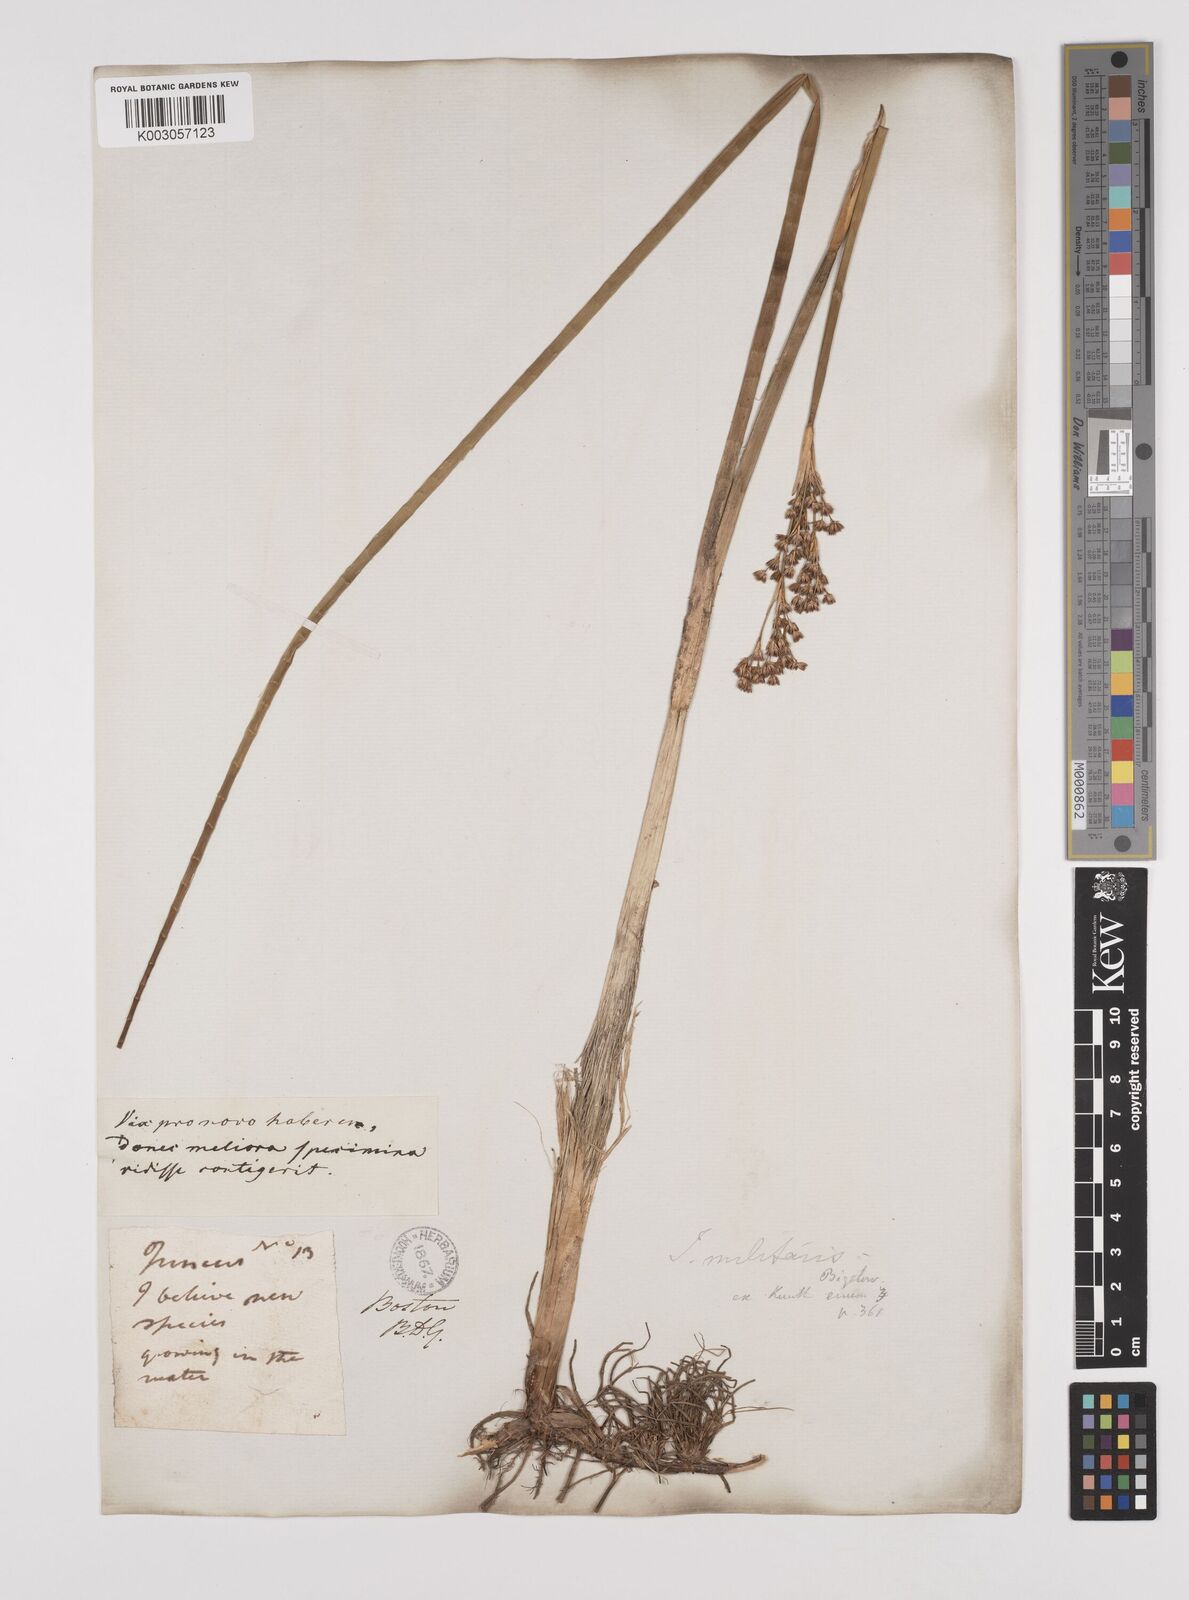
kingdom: Plantae
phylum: Tracheophyta
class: Liliopsida
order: Poales
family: Juncaceae
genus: Juncus
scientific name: Juncus militaris
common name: Bayonet rush
